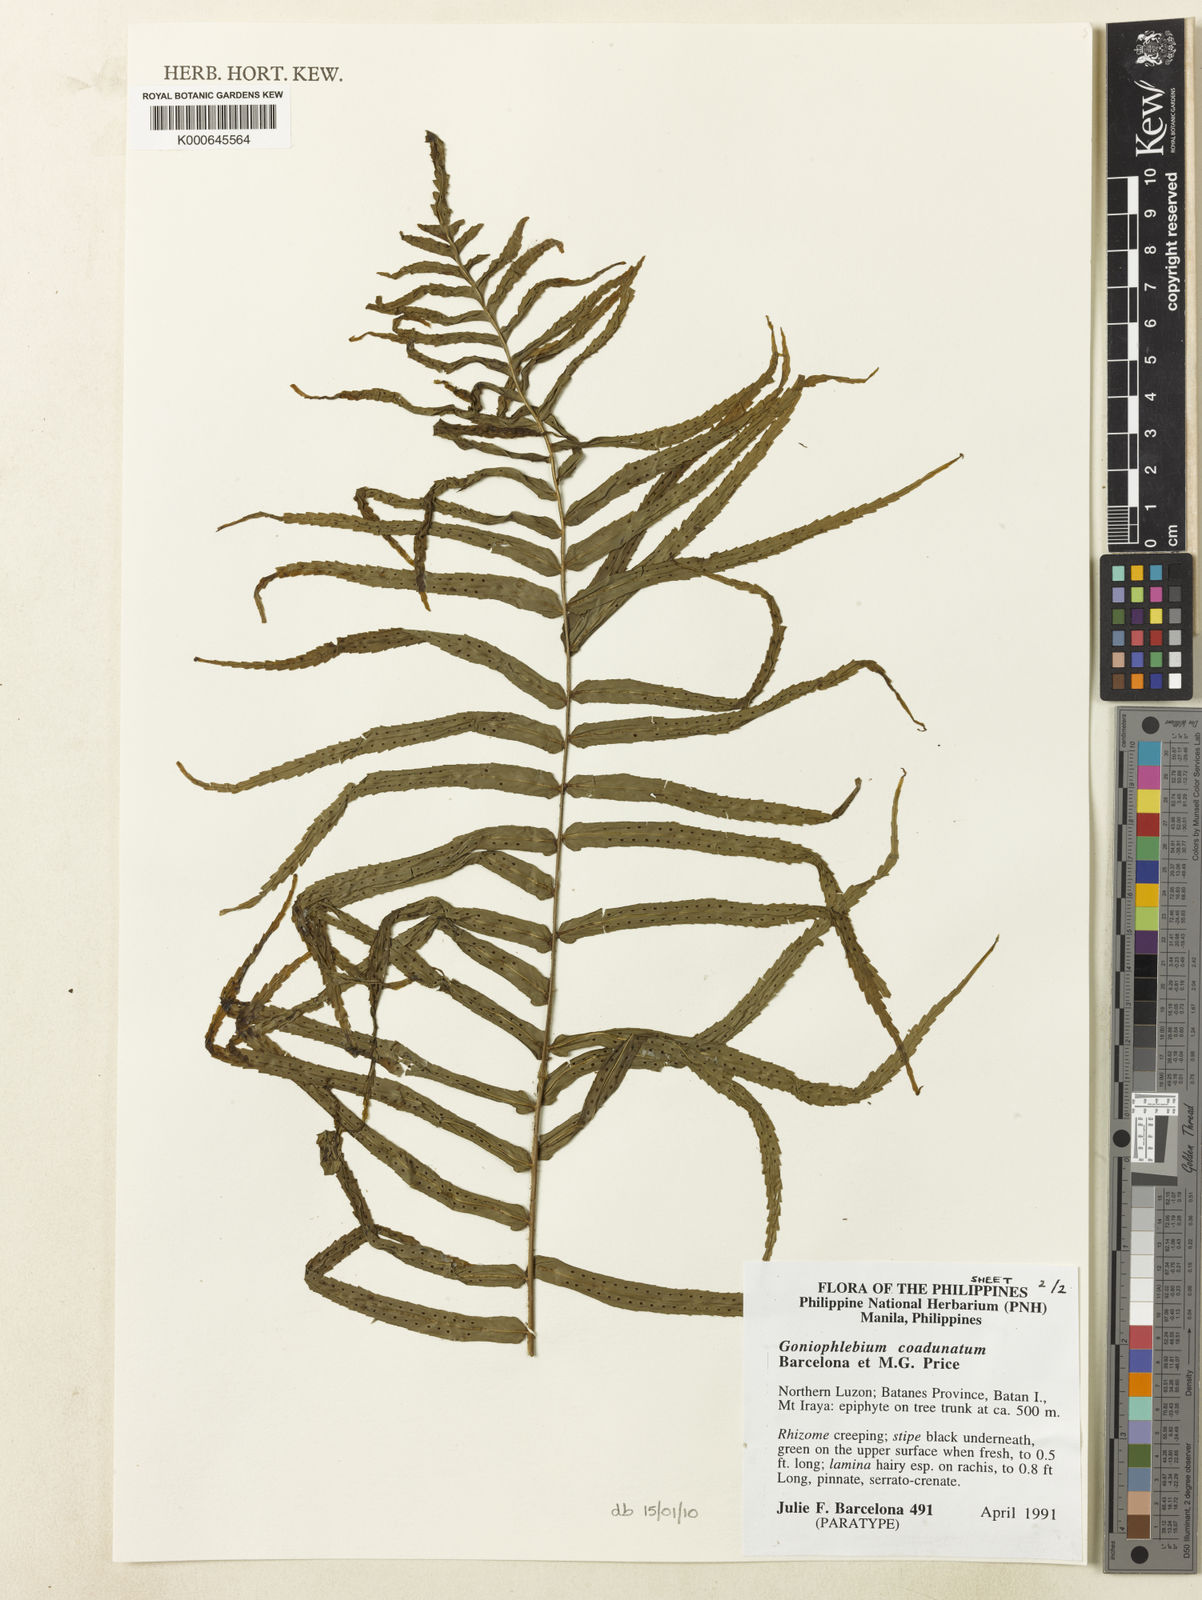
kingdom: Plantae
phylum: Tracheophyta
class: Polypodiopsida
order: Polypodiales
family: Polypodiaceae
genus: Polypodium
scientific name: Polypodium
